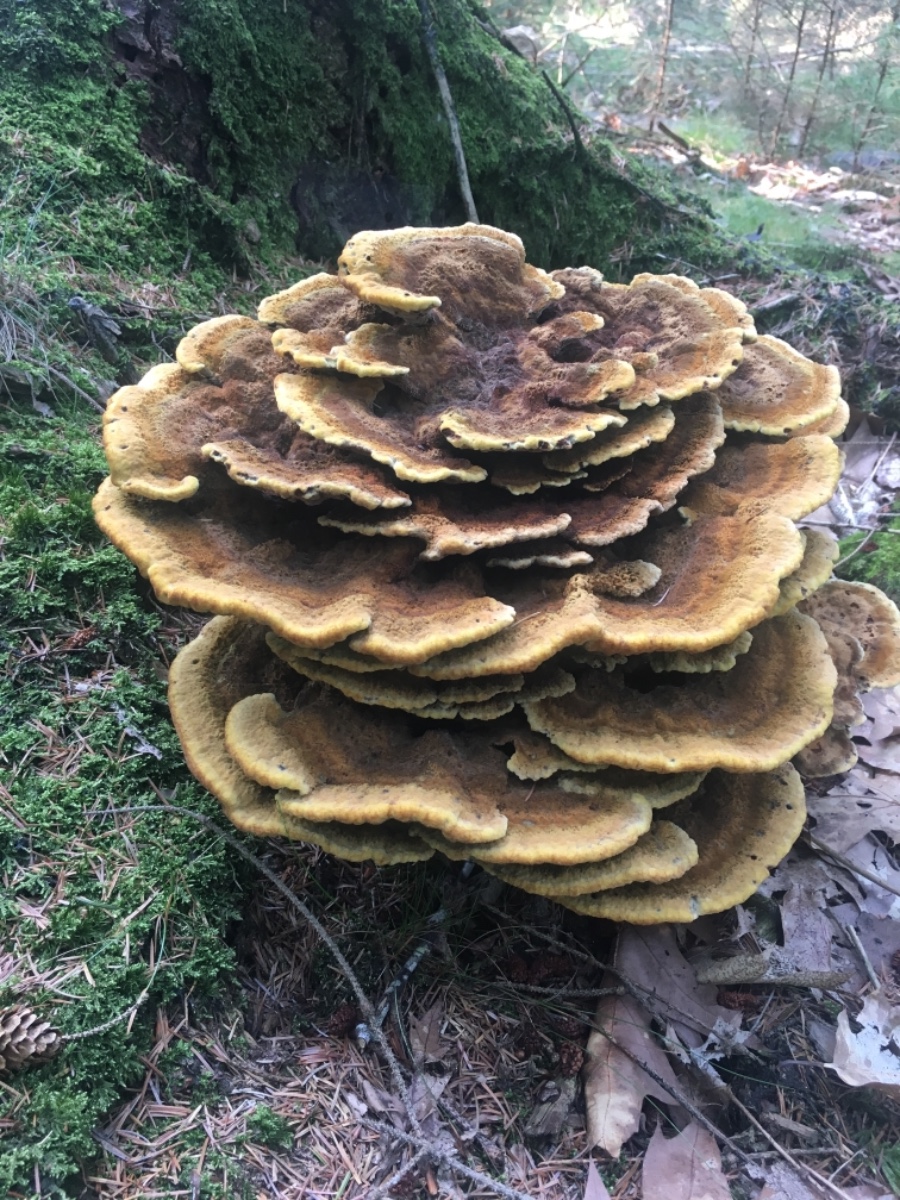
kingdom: Fungi
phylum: Basidiomycota
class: Agaricomycetes
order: Polyporales
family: Laetiporaceae
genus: Phaeolus
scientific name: Phaeolus schweinitzii
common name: brunporesvamp
